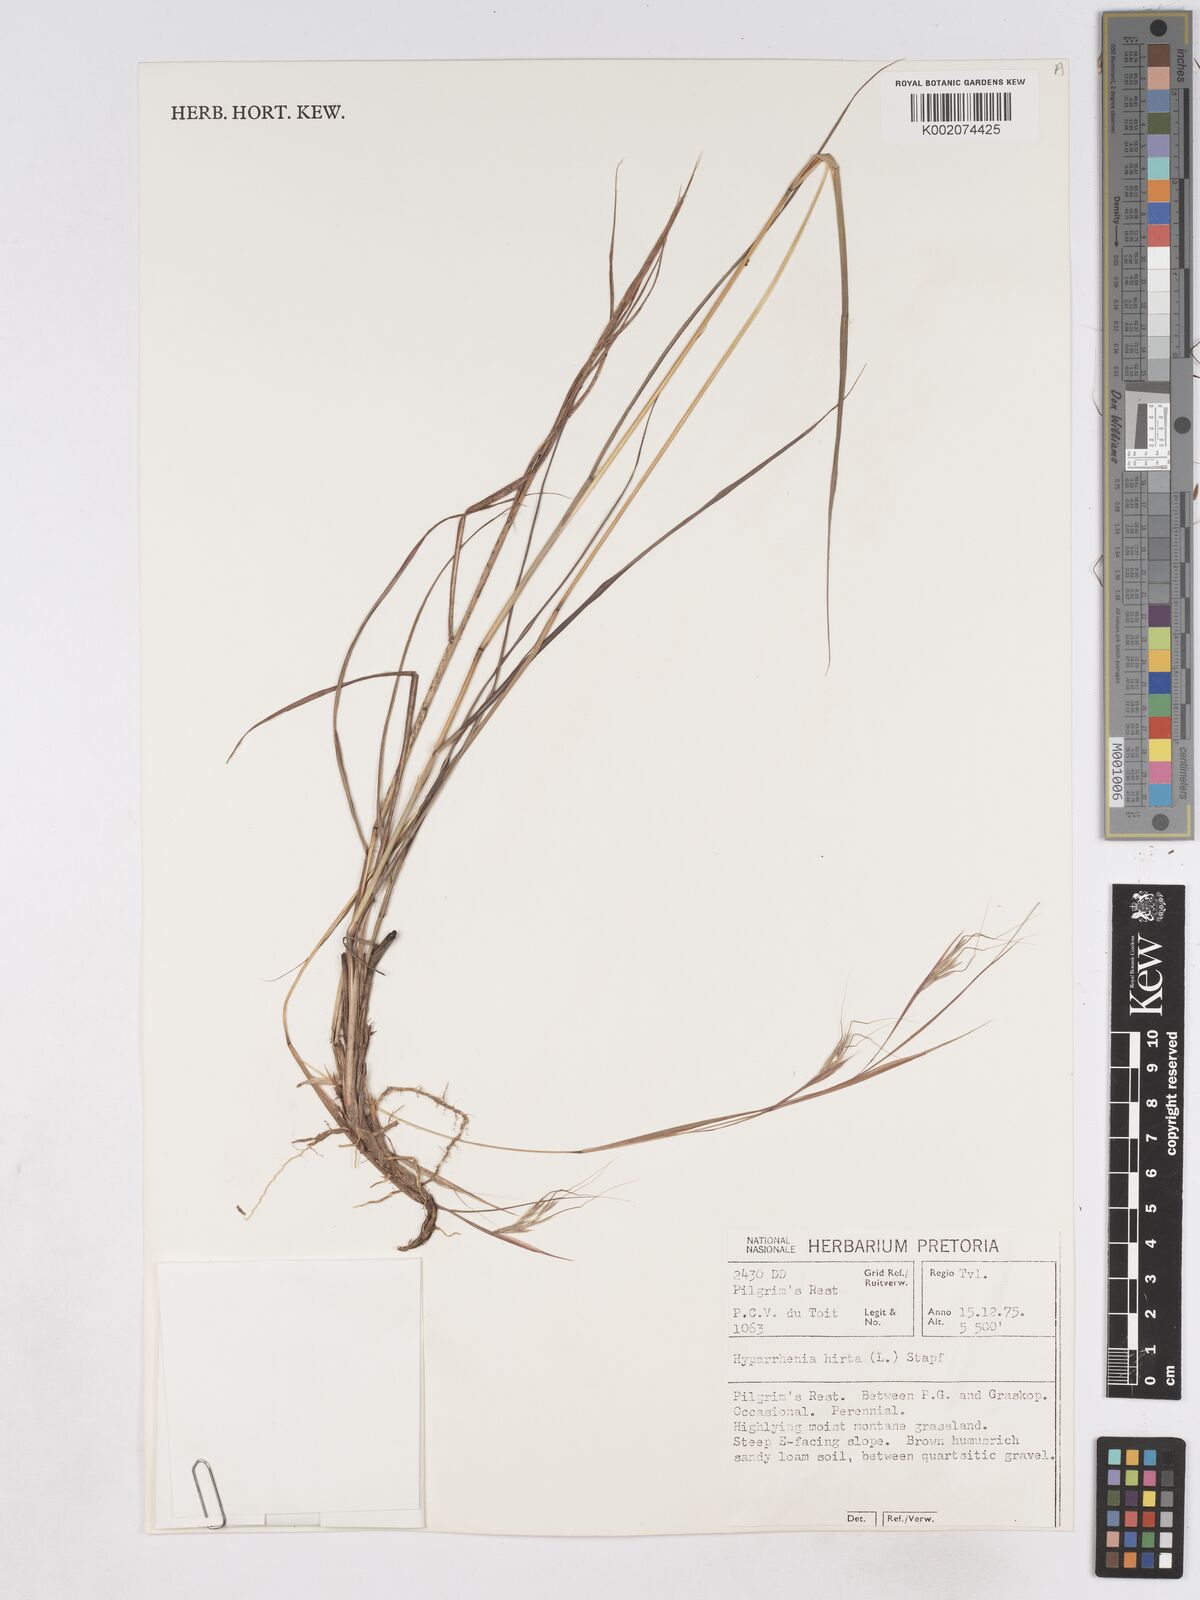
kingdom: Plantae
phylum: Tracheophyta
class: Liliopsida
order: Poales
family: Poaceae
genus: Hyparrhenia
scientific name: Hyparrhenia hirta
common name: Thatching grass
